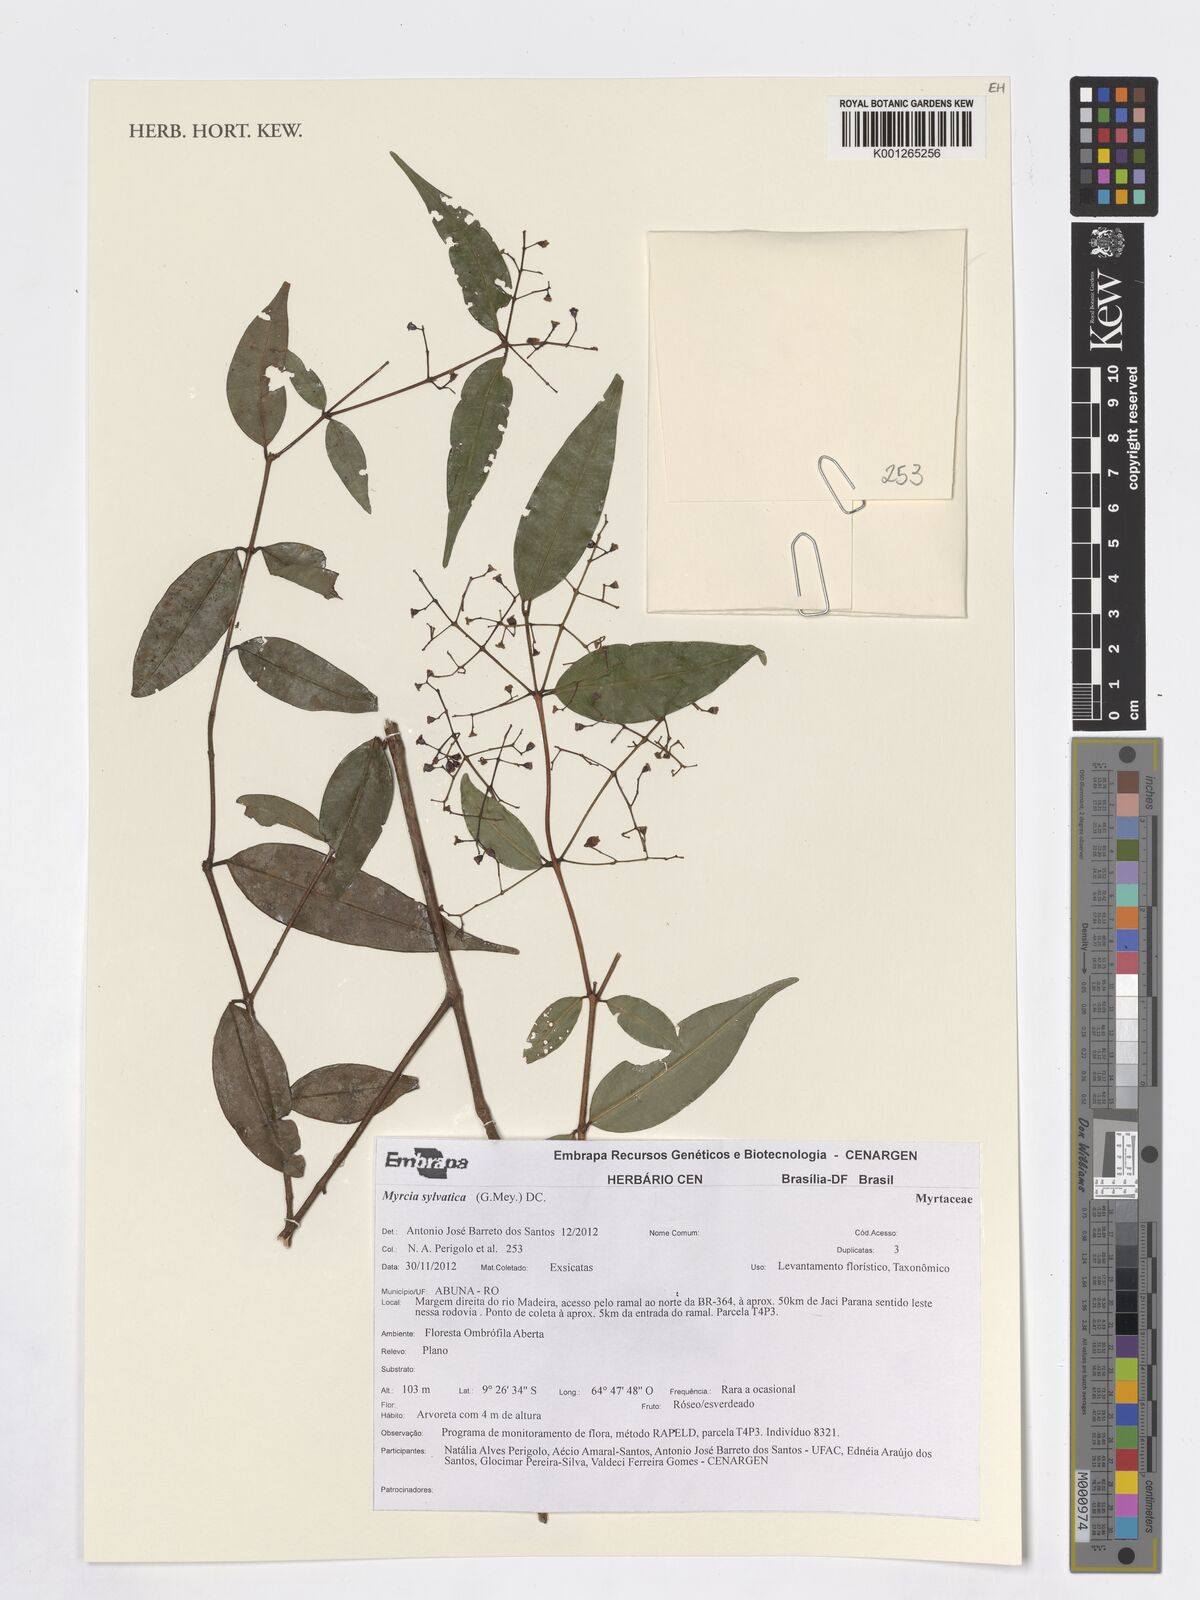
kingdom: Plantae
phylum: Tracheophyta
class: Magnoliopsida
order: Myrtales
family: Myrtaceae
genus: Myrcia
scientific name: Myrcia sylvatica
